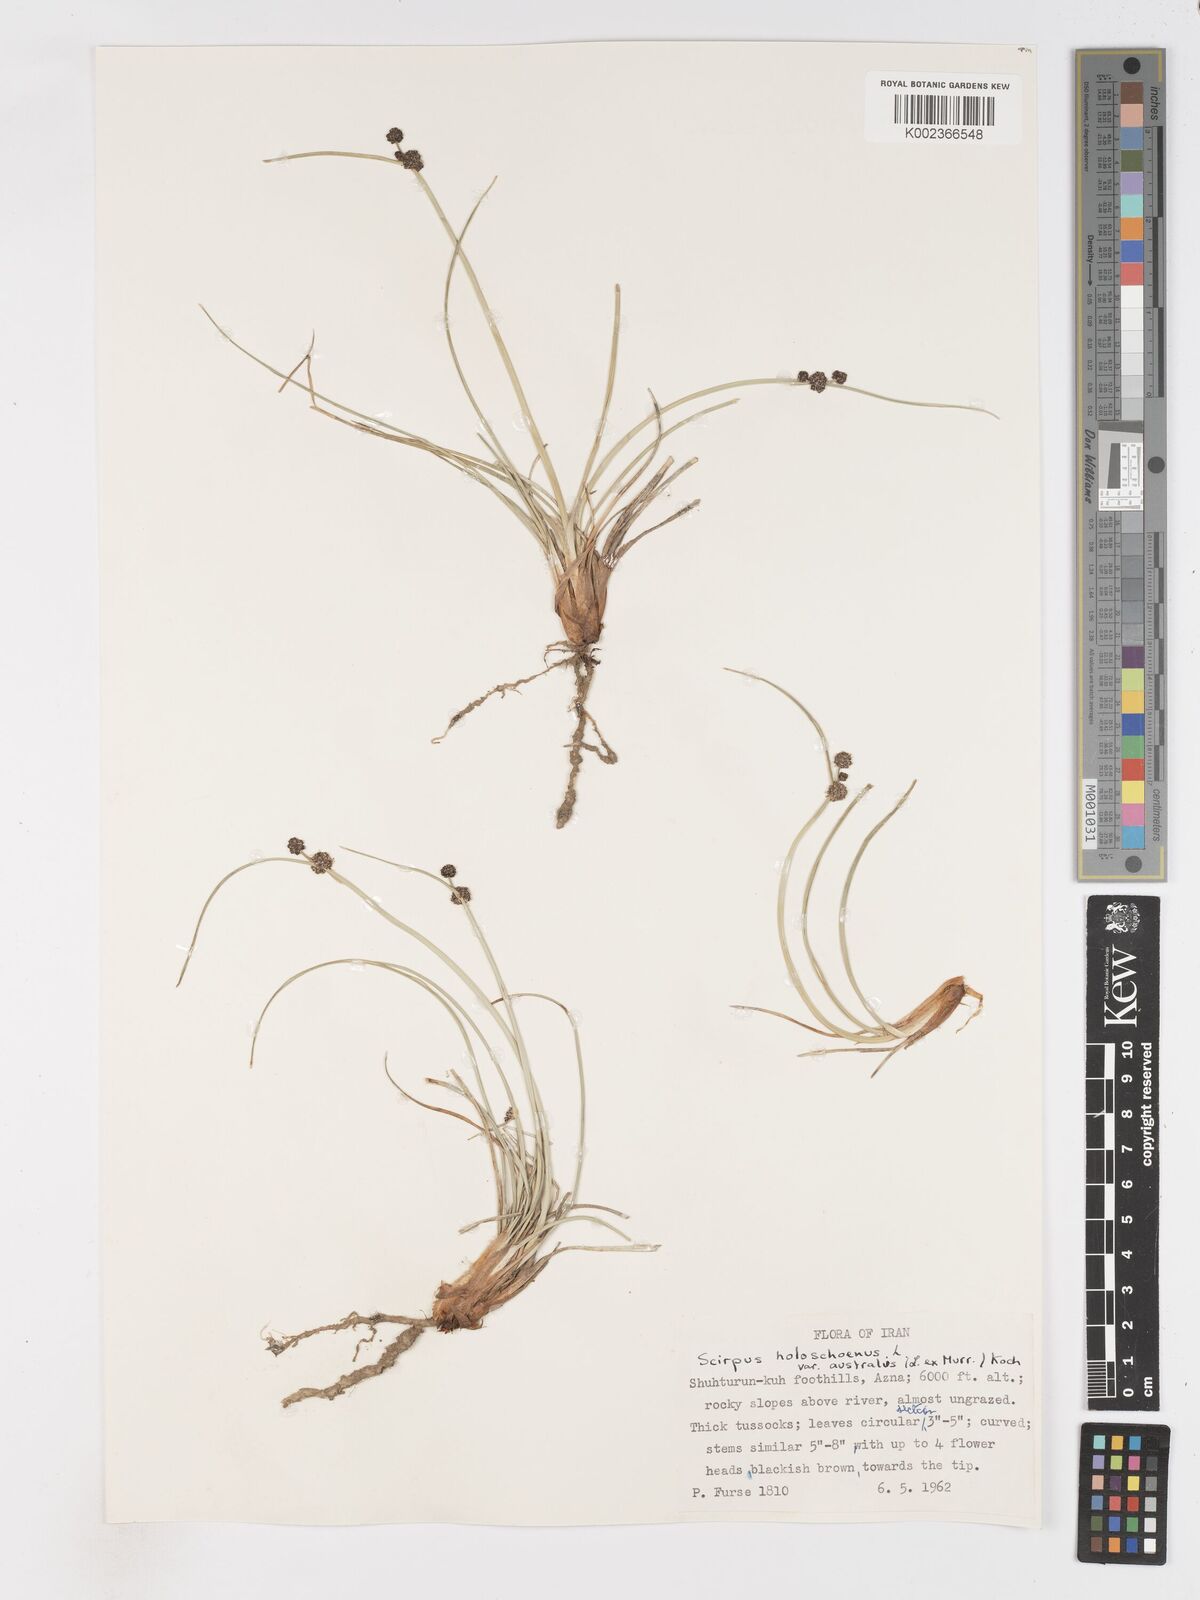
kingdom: Plantae
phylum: Tracheophyta
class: Liliopsida
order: Poales
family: Cyperaceae
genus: Scirpoides
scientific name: Scirpoides holoschoenus
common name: Round-headed club-rush
